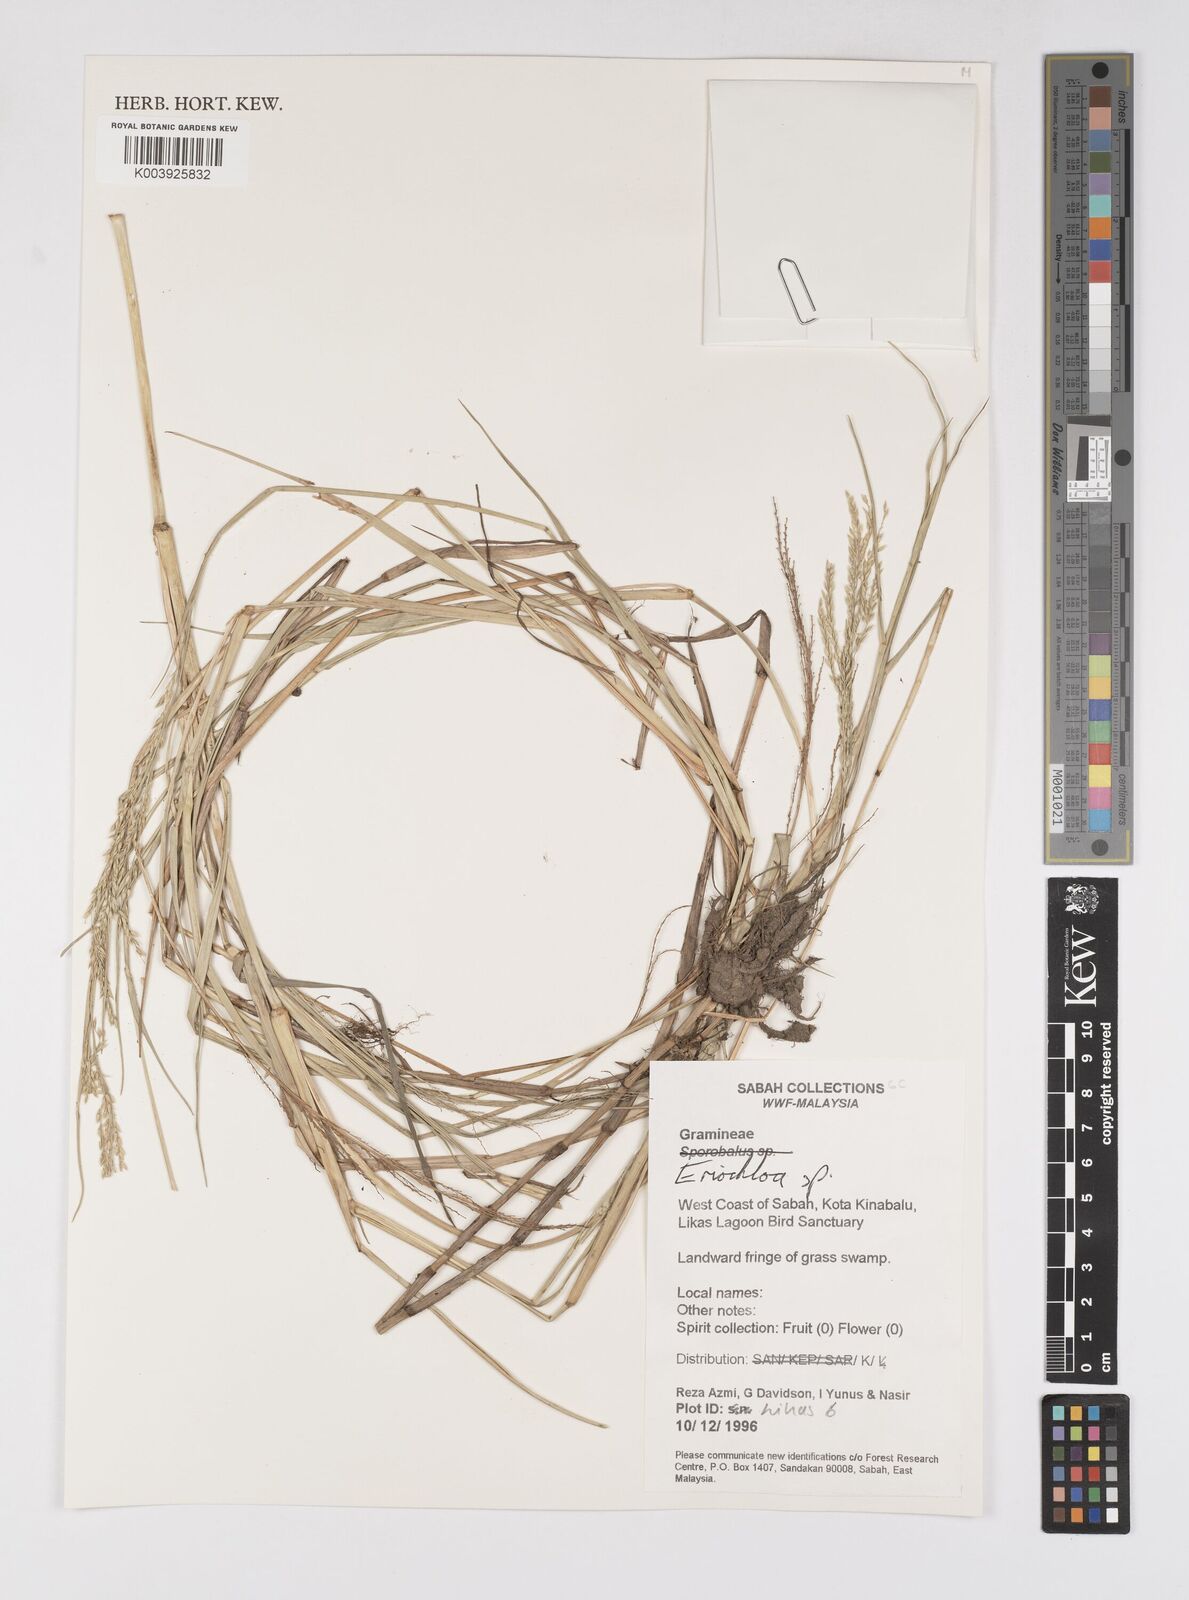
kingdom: Plantae
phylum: Tracheophyta
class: Liliopsida
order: Poales
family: Poaceae
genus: Eriochloa
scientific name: Eriochloa
